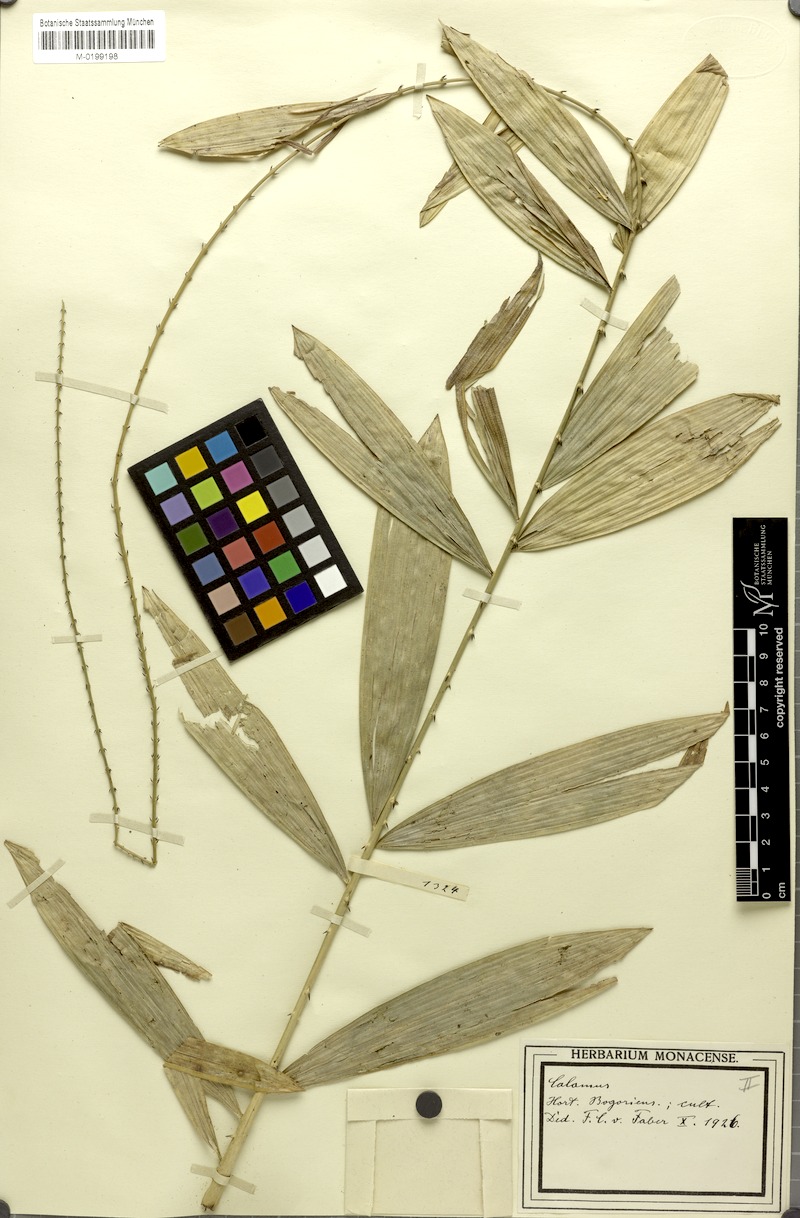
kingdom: Plantae
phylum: Tracheophyta
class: Liliopsida
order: Arecales
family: Arecaceae
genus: Calamus
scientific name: Calamus
